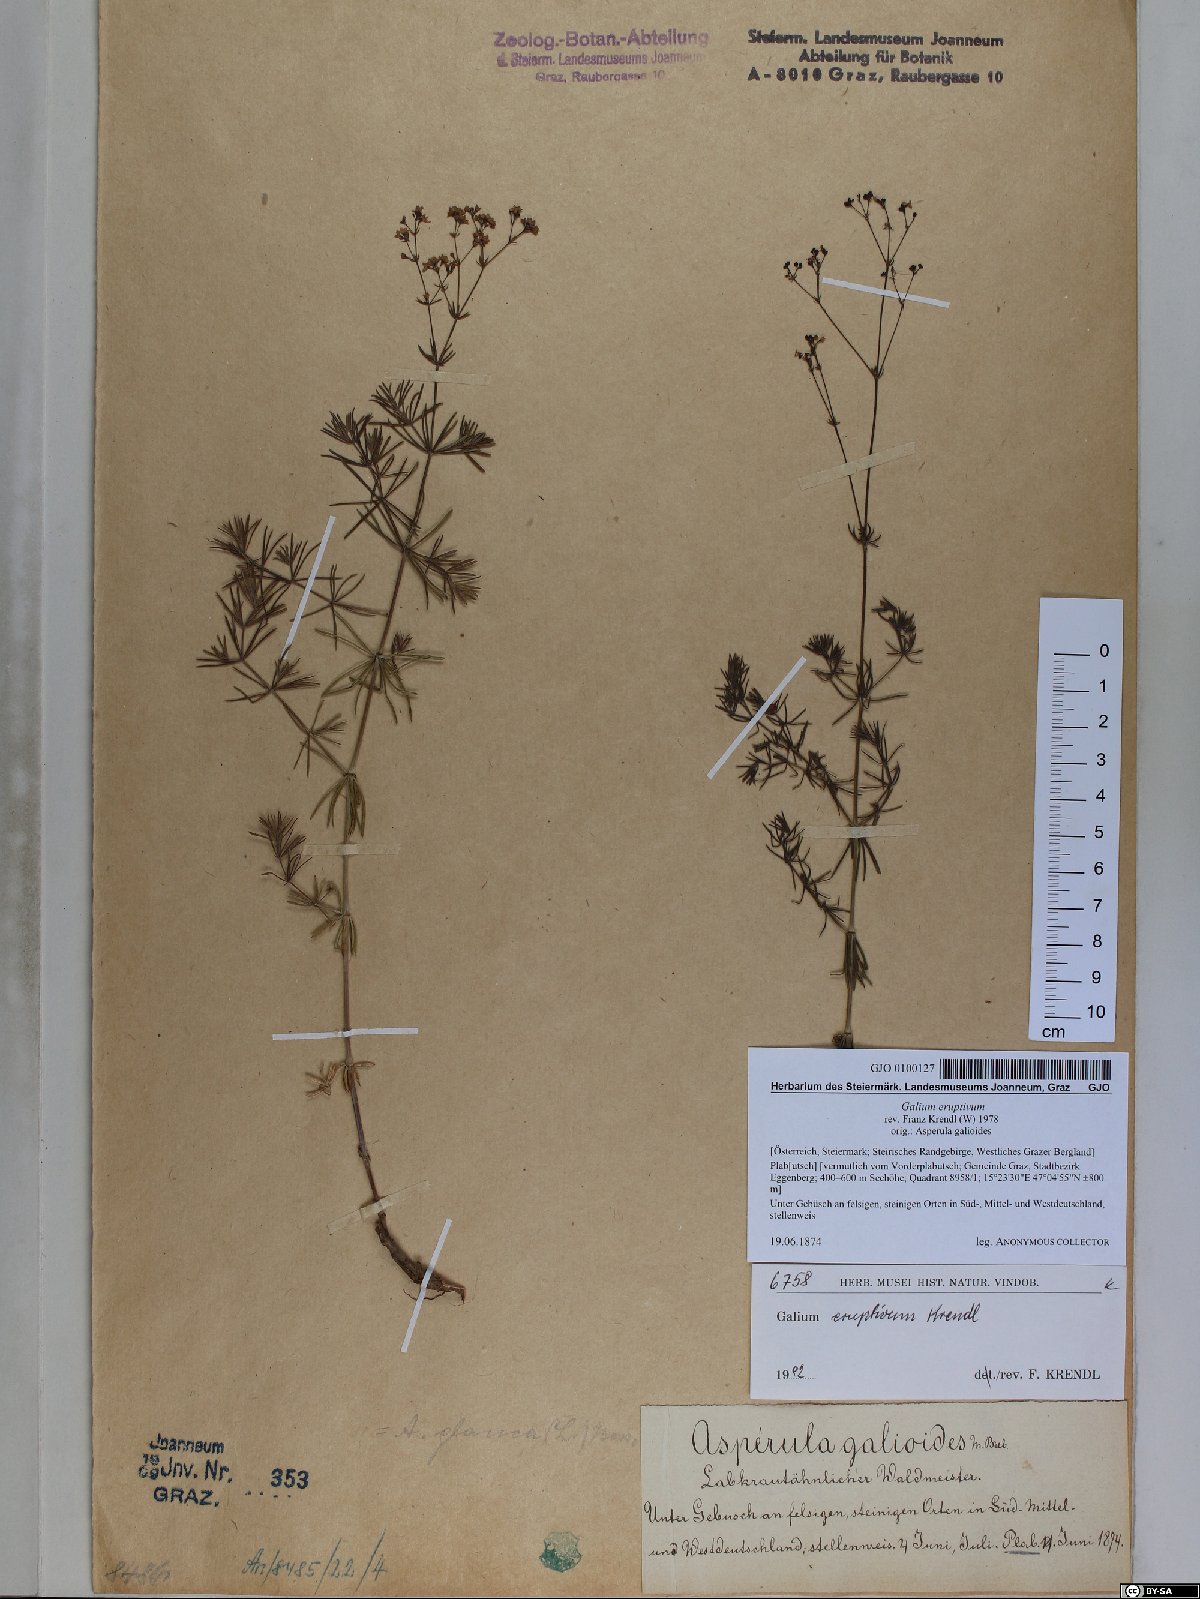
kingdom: Plantae
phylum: Tracheophyta
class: Magnoliopsida
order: Gentianales
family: Rubiaceae
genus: Galium
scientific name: Galium eruptivum
